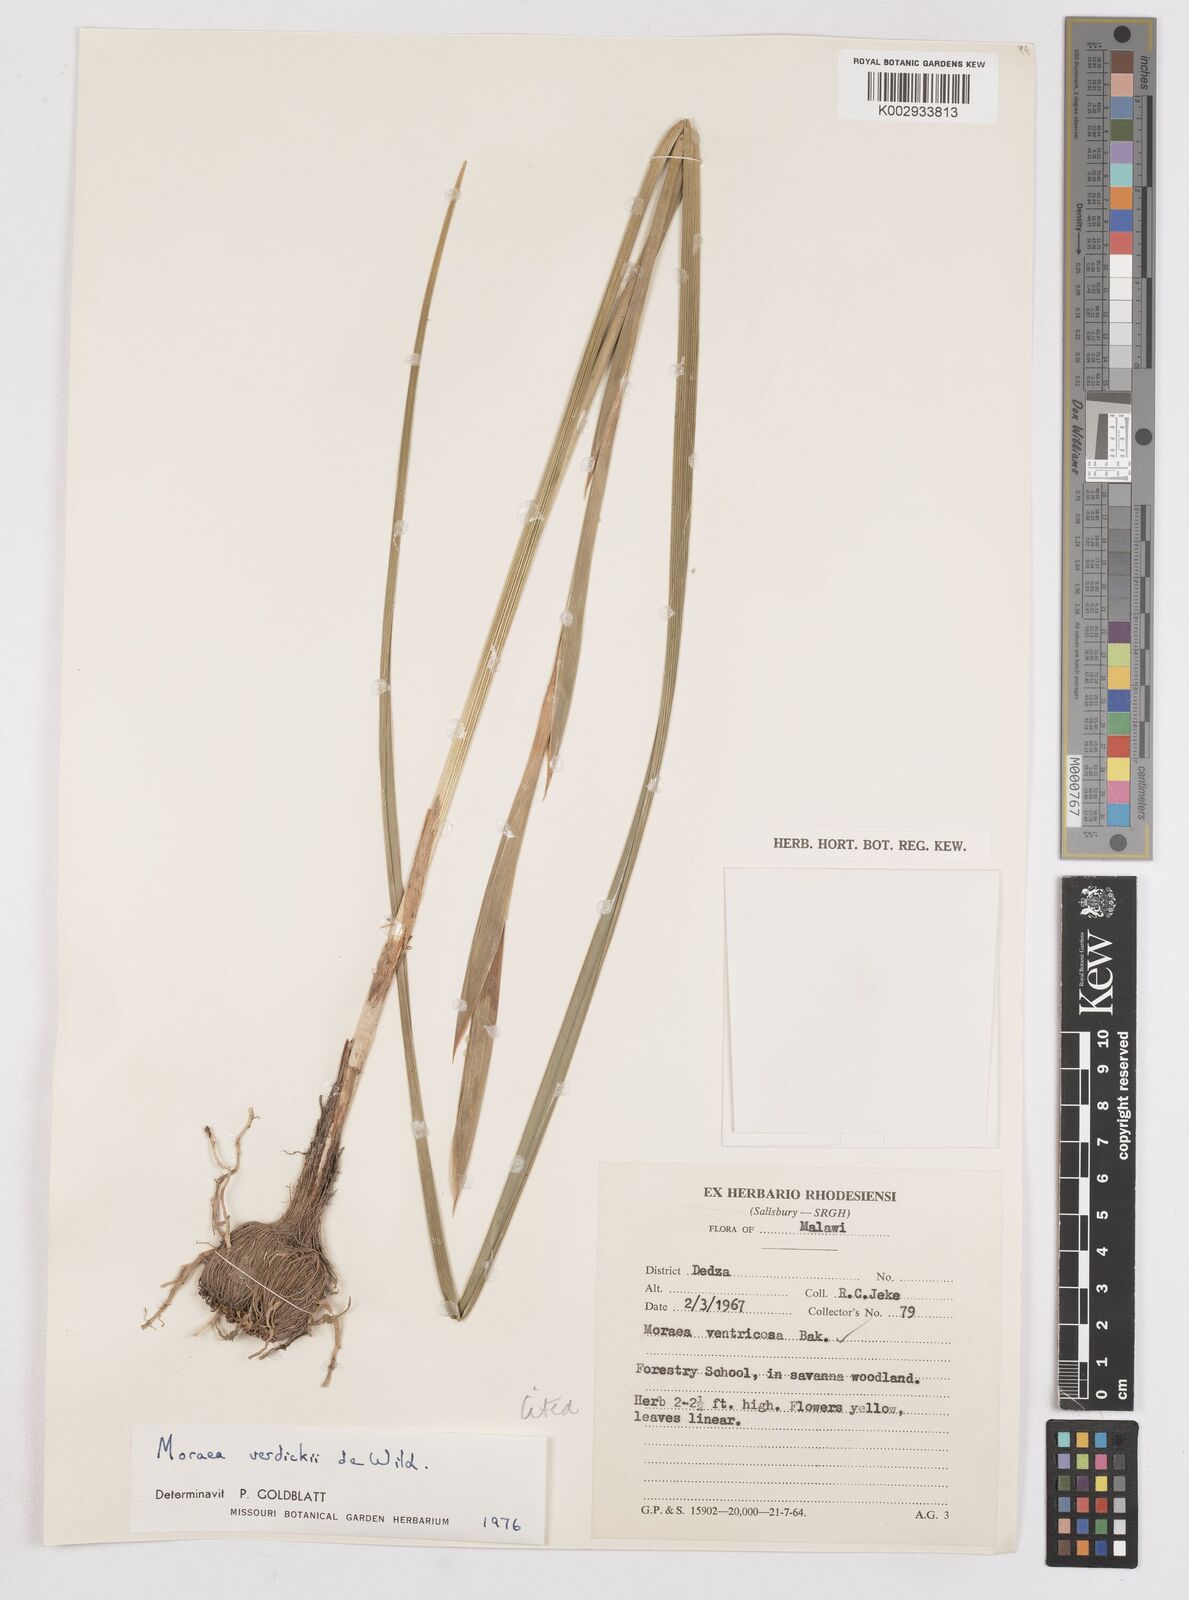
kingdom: Plantae
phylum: Tracheophyta
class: Liliopsida
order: Asparagales
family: Iridaceae
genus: Moraea
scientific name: Moraea verdickii
